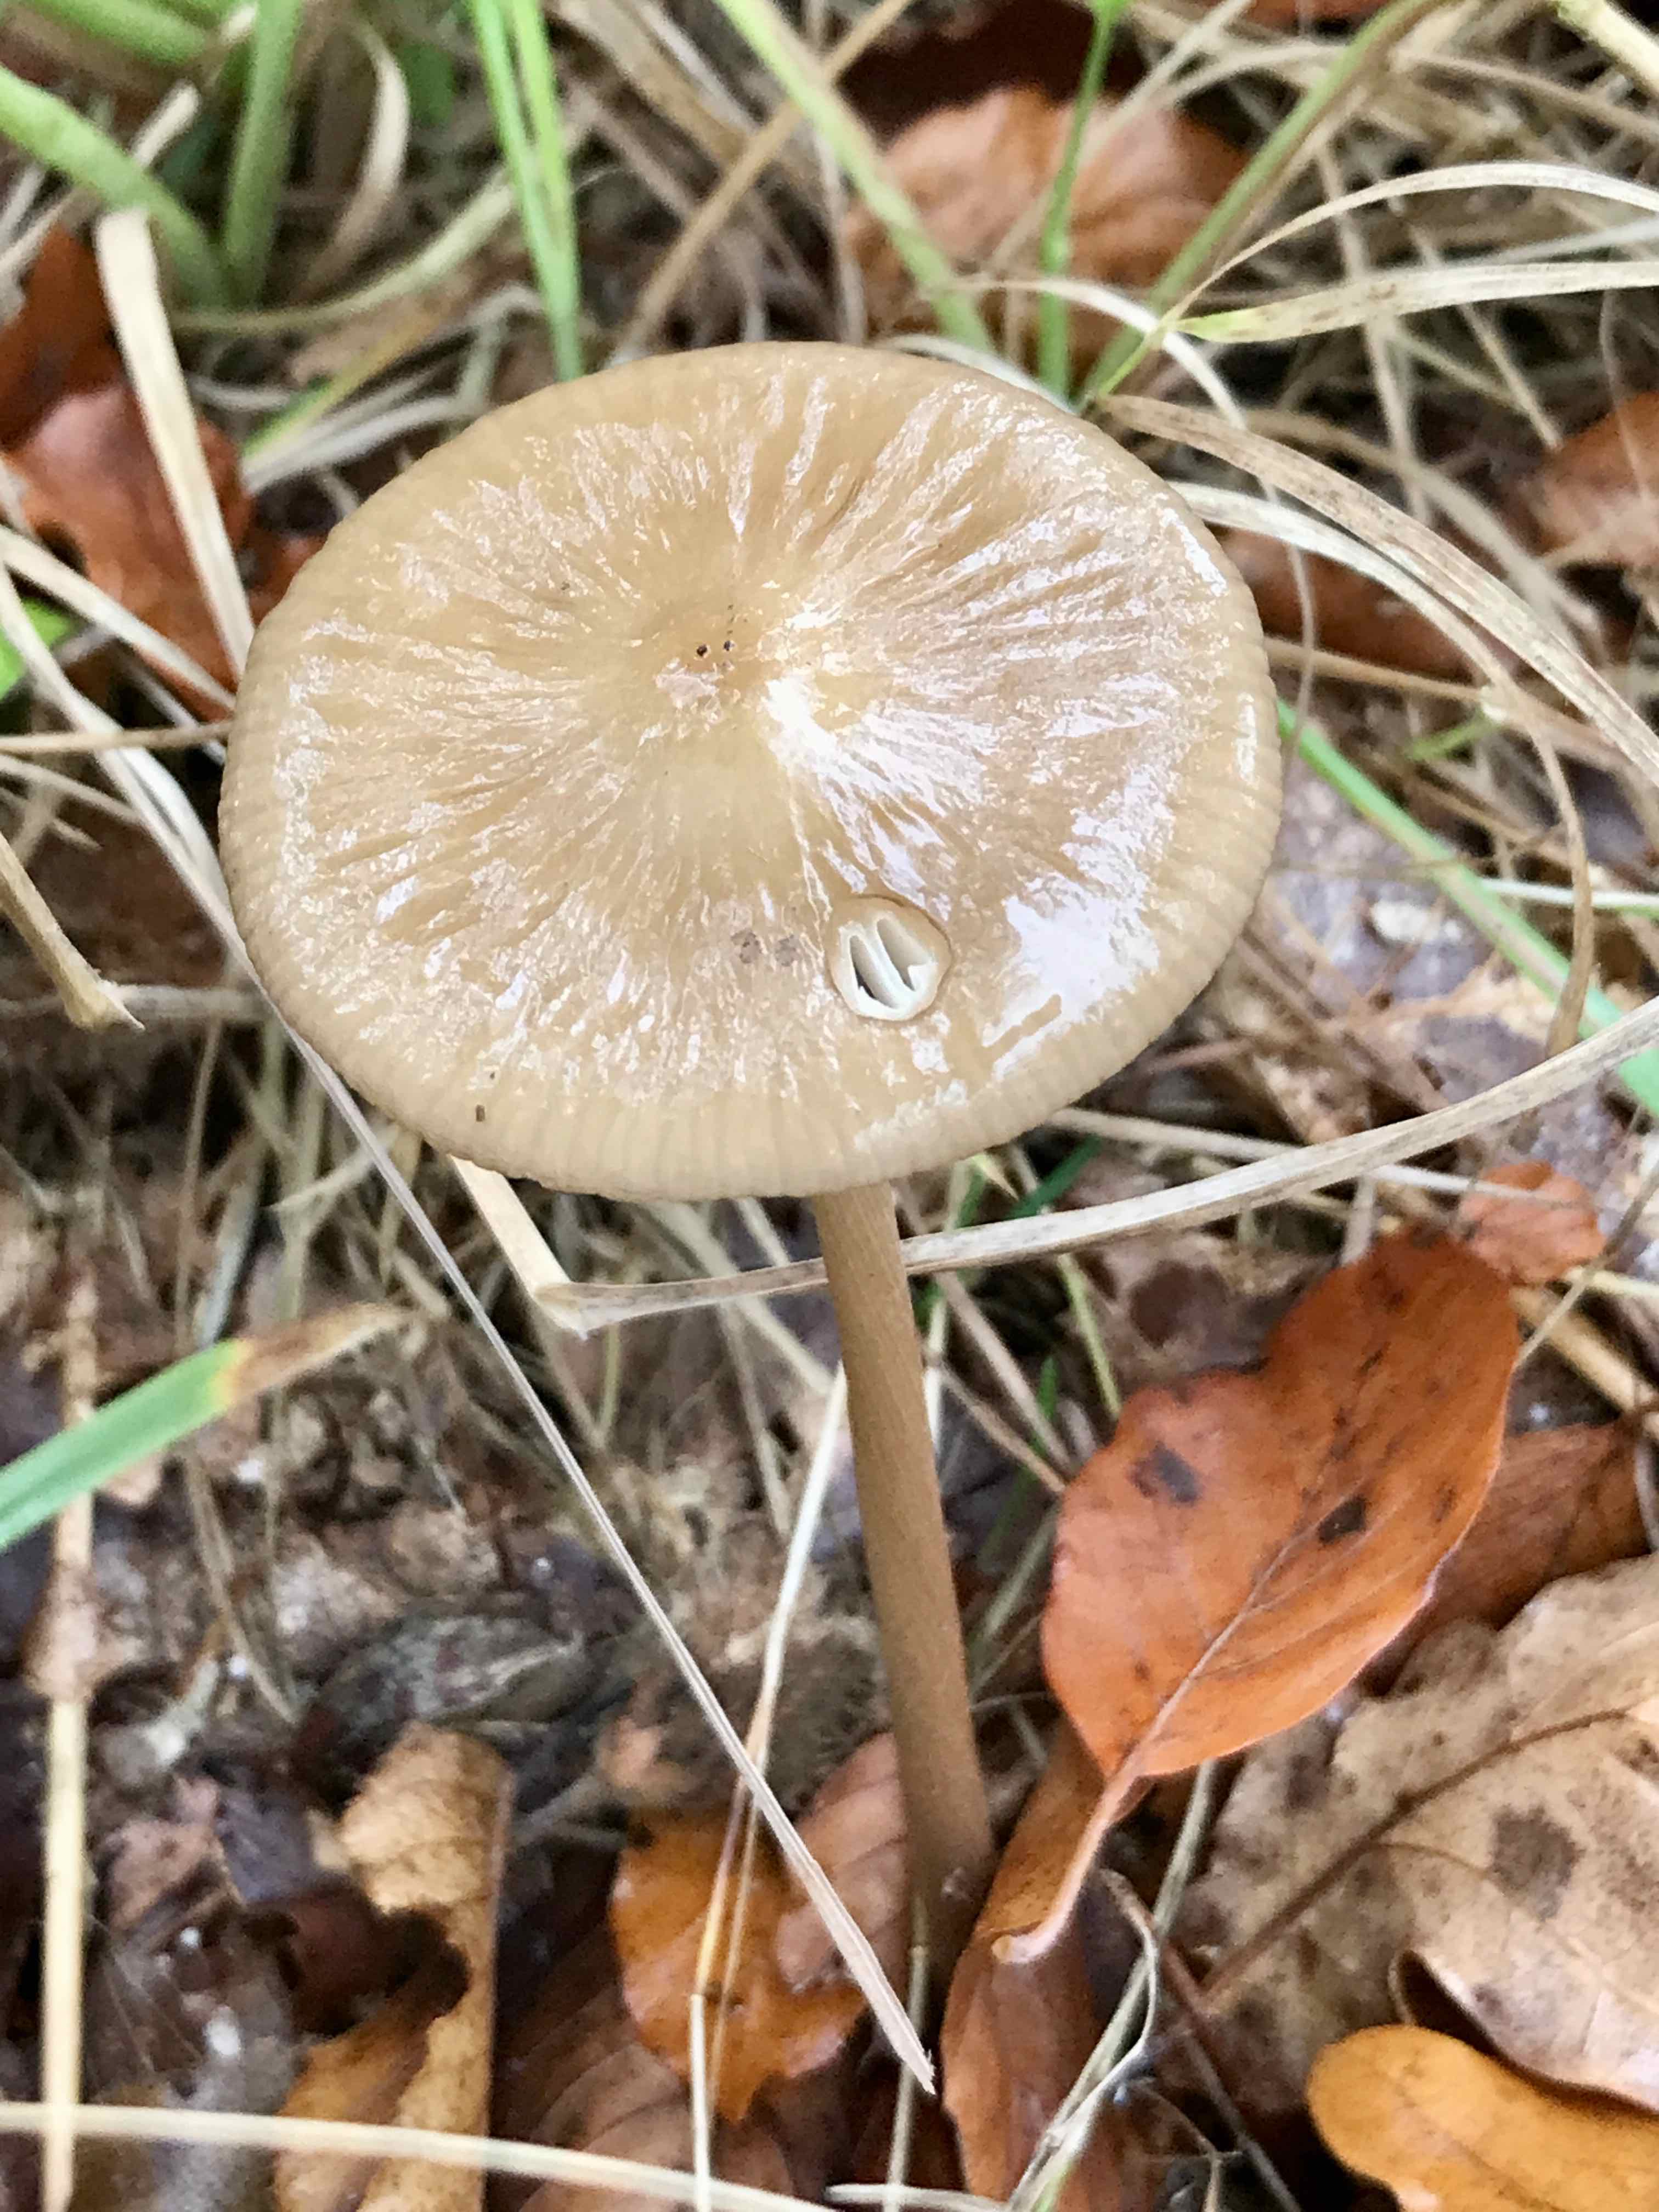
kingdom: Fungi
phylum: Basidiomycota
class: Agaricomycetes
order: Agaricales
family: Physalacriaceae
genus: Hymenopellis
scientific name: Hymenopellis radicata
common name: almindelig pælerodshat
